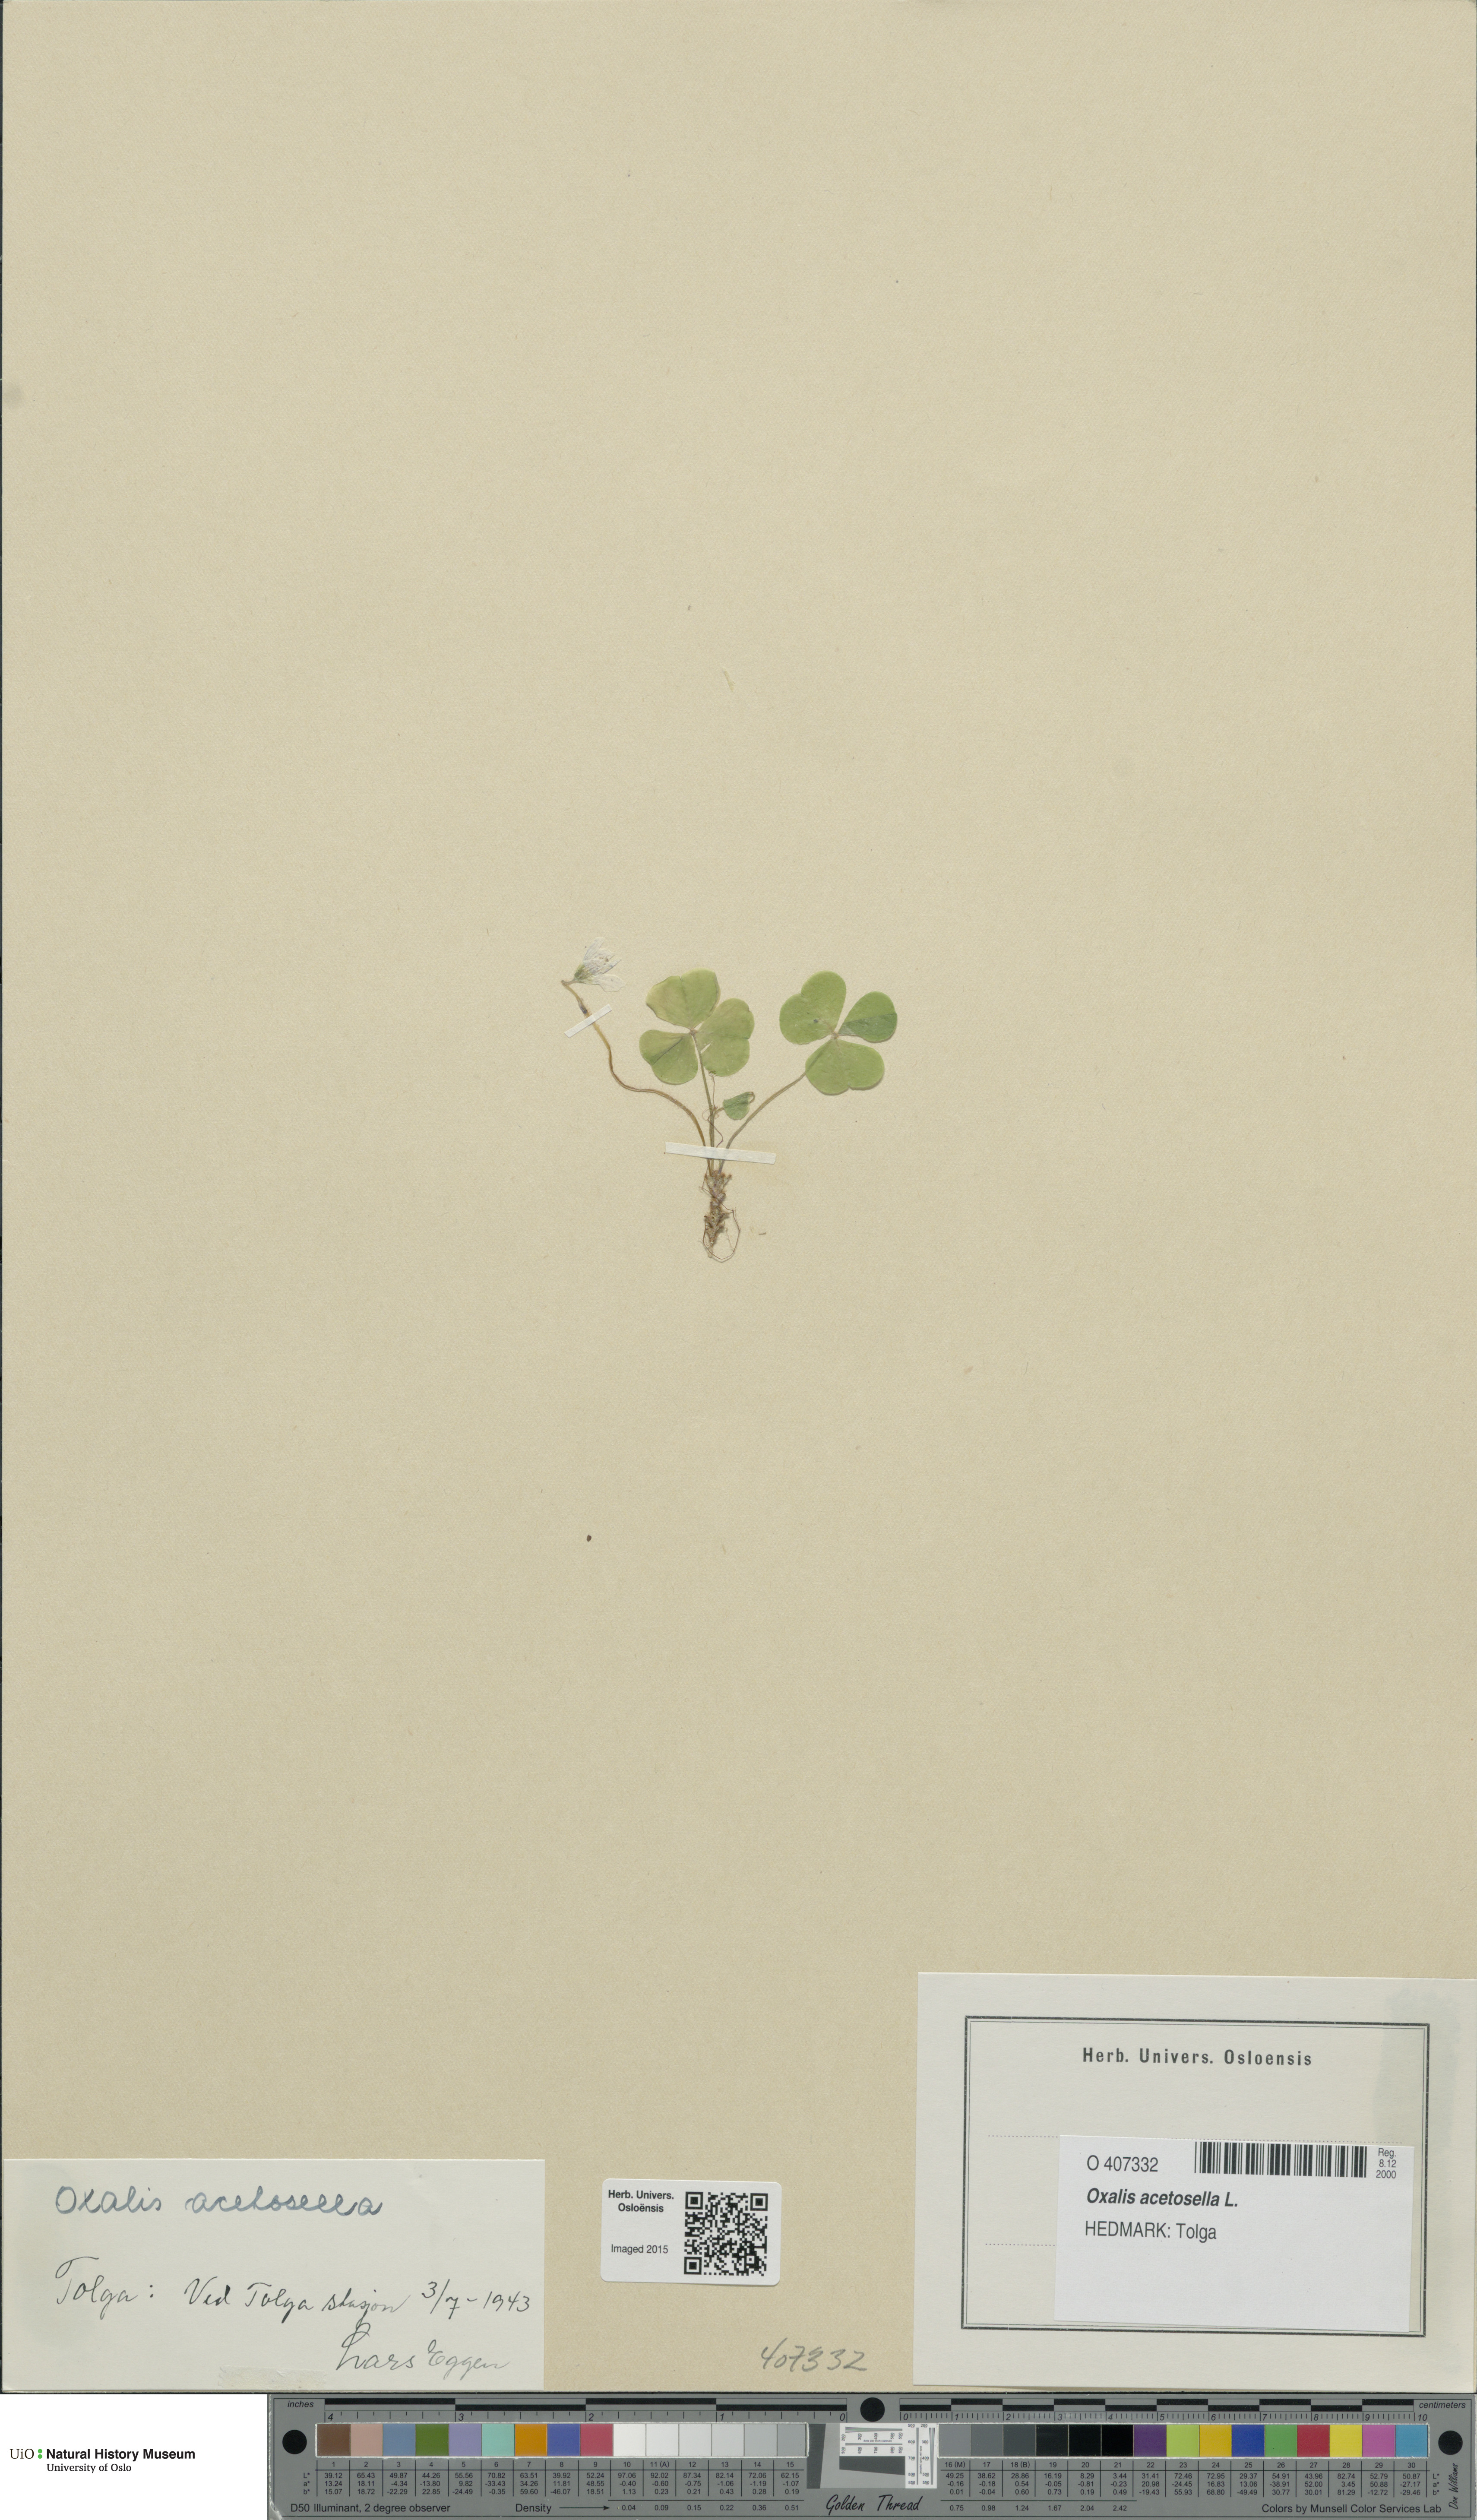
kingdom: Plantae
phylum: Tracheophyta
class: Magnoliopsida
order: Oxalidales
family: Oxalidaceae
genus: Oxalis
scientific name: Oxalis acetosella
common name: Wood-sorrel
